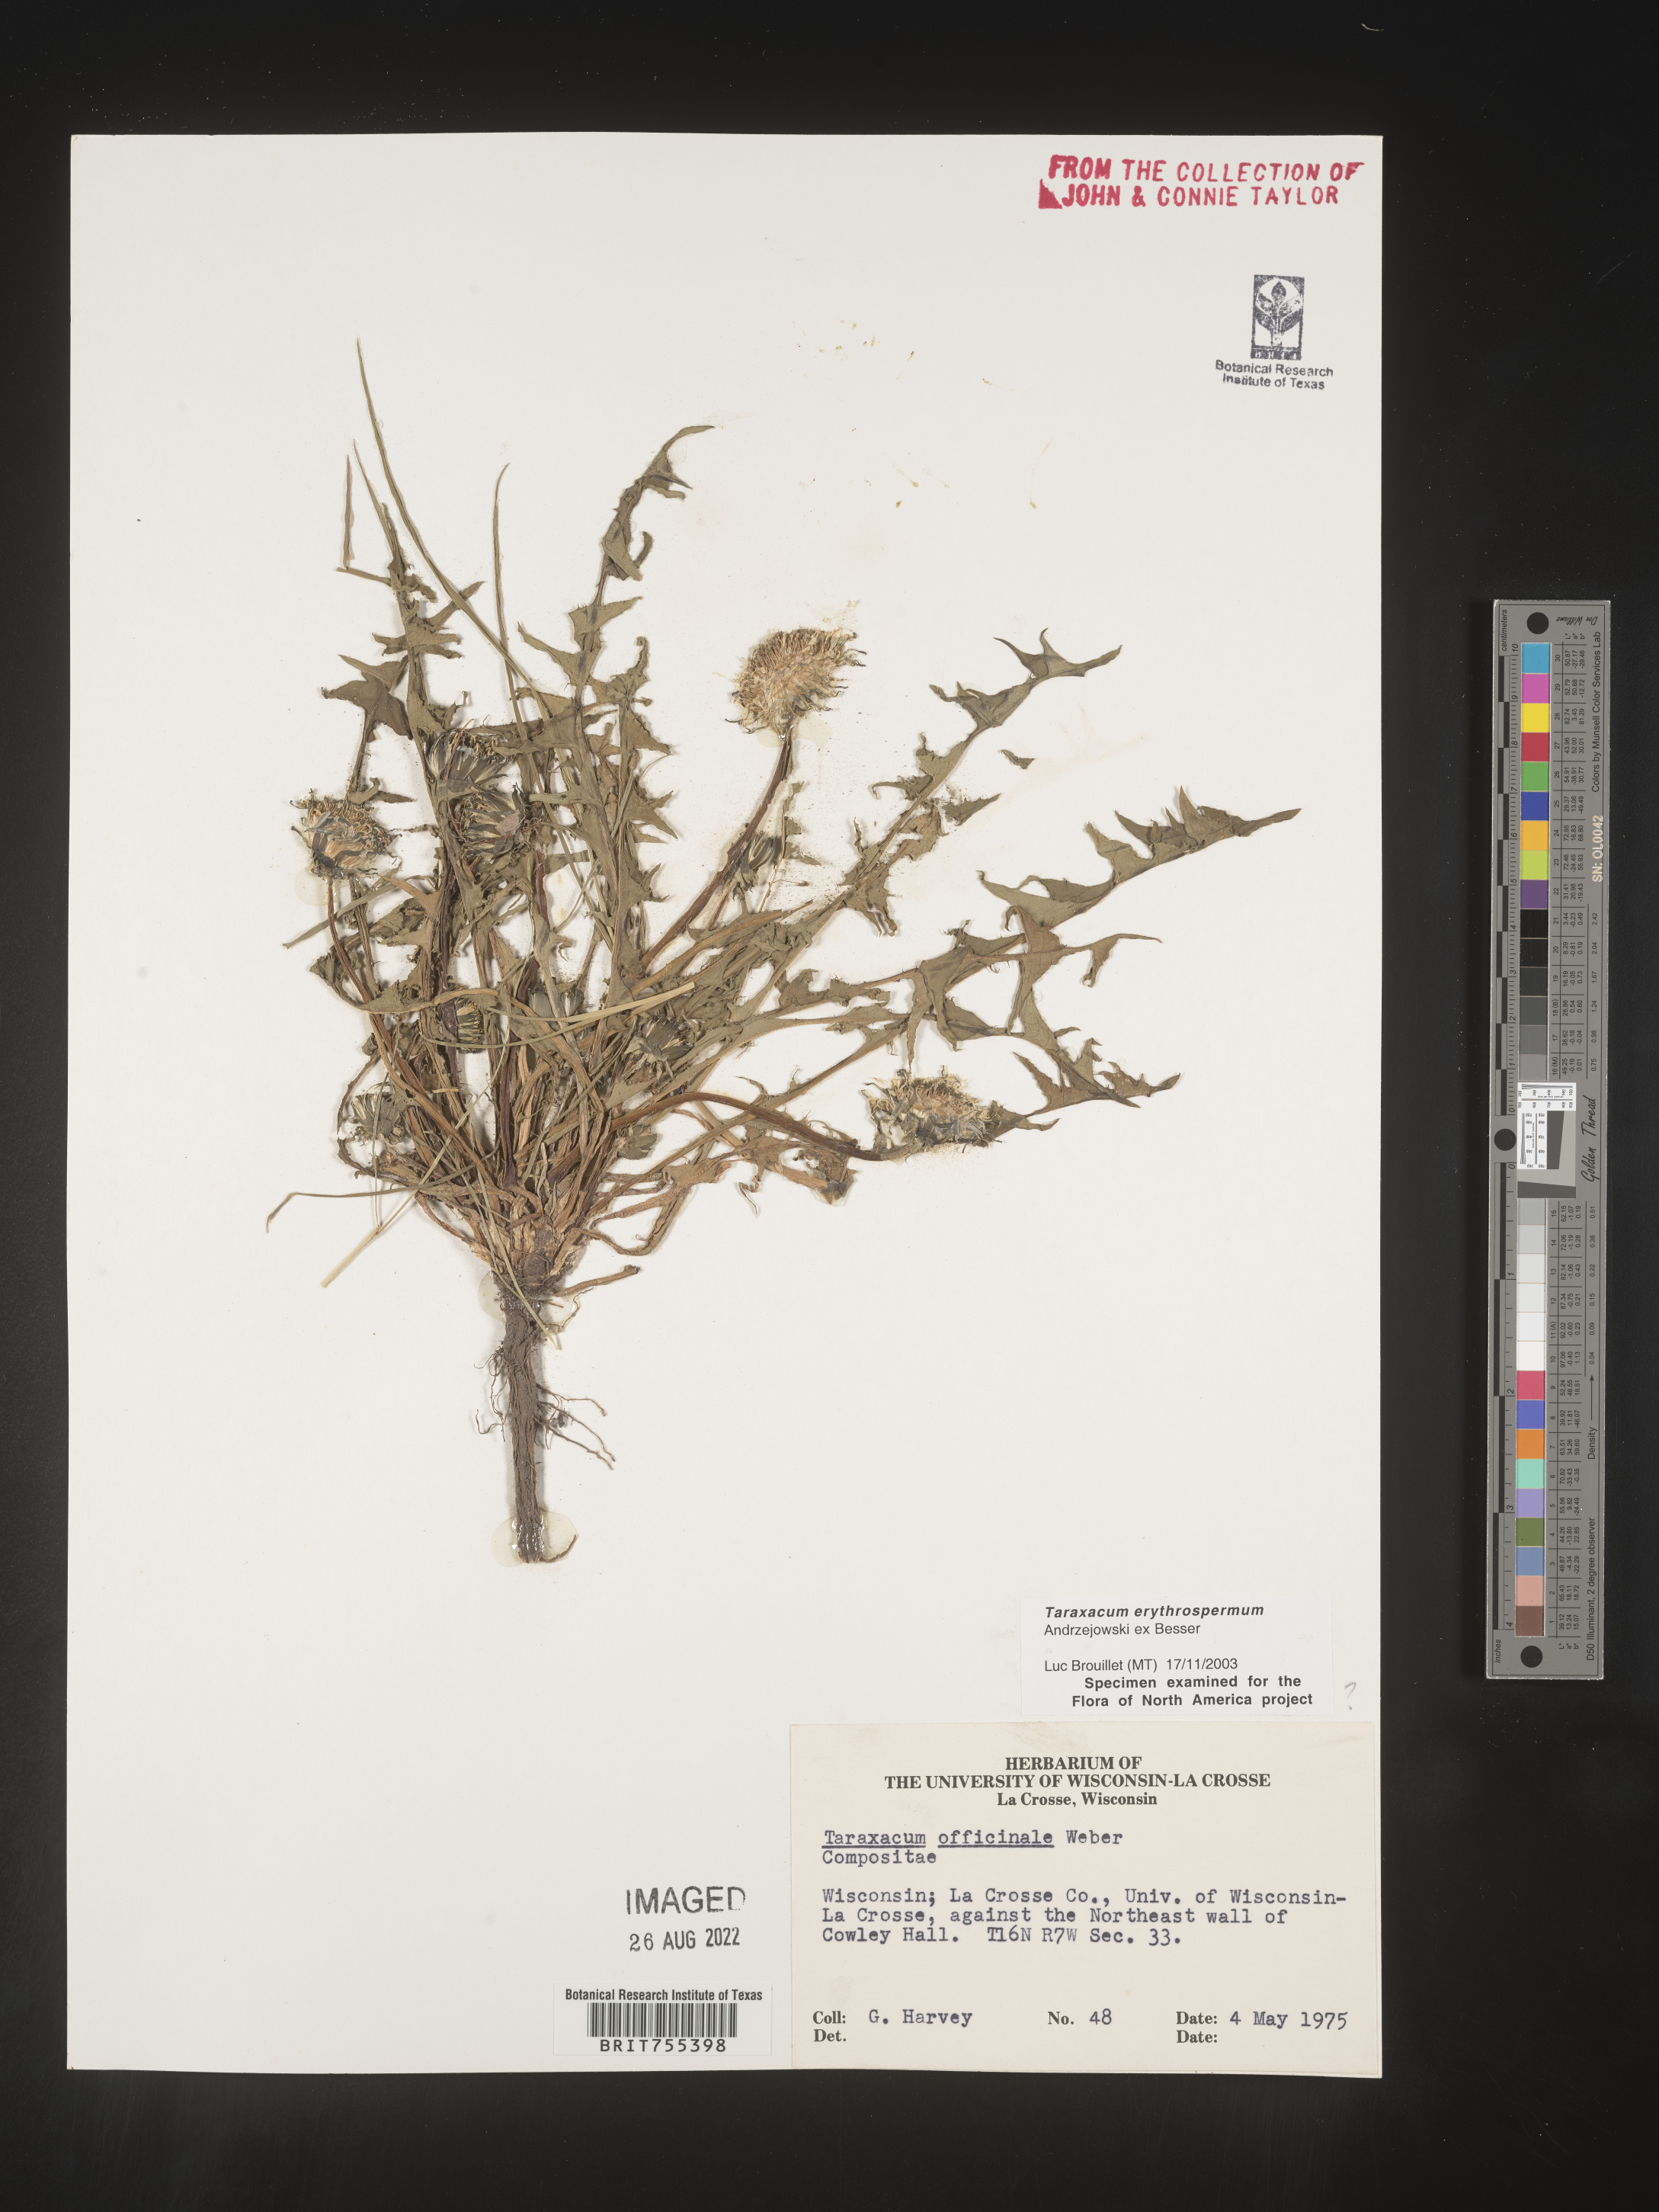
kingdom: Plantae
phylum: Tracheophyta
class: Magnoliopsida
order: Asterales
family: Asteraceae
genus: Taraxacum
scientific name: Taraxacum erythrospermum
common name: Rock dandelion
